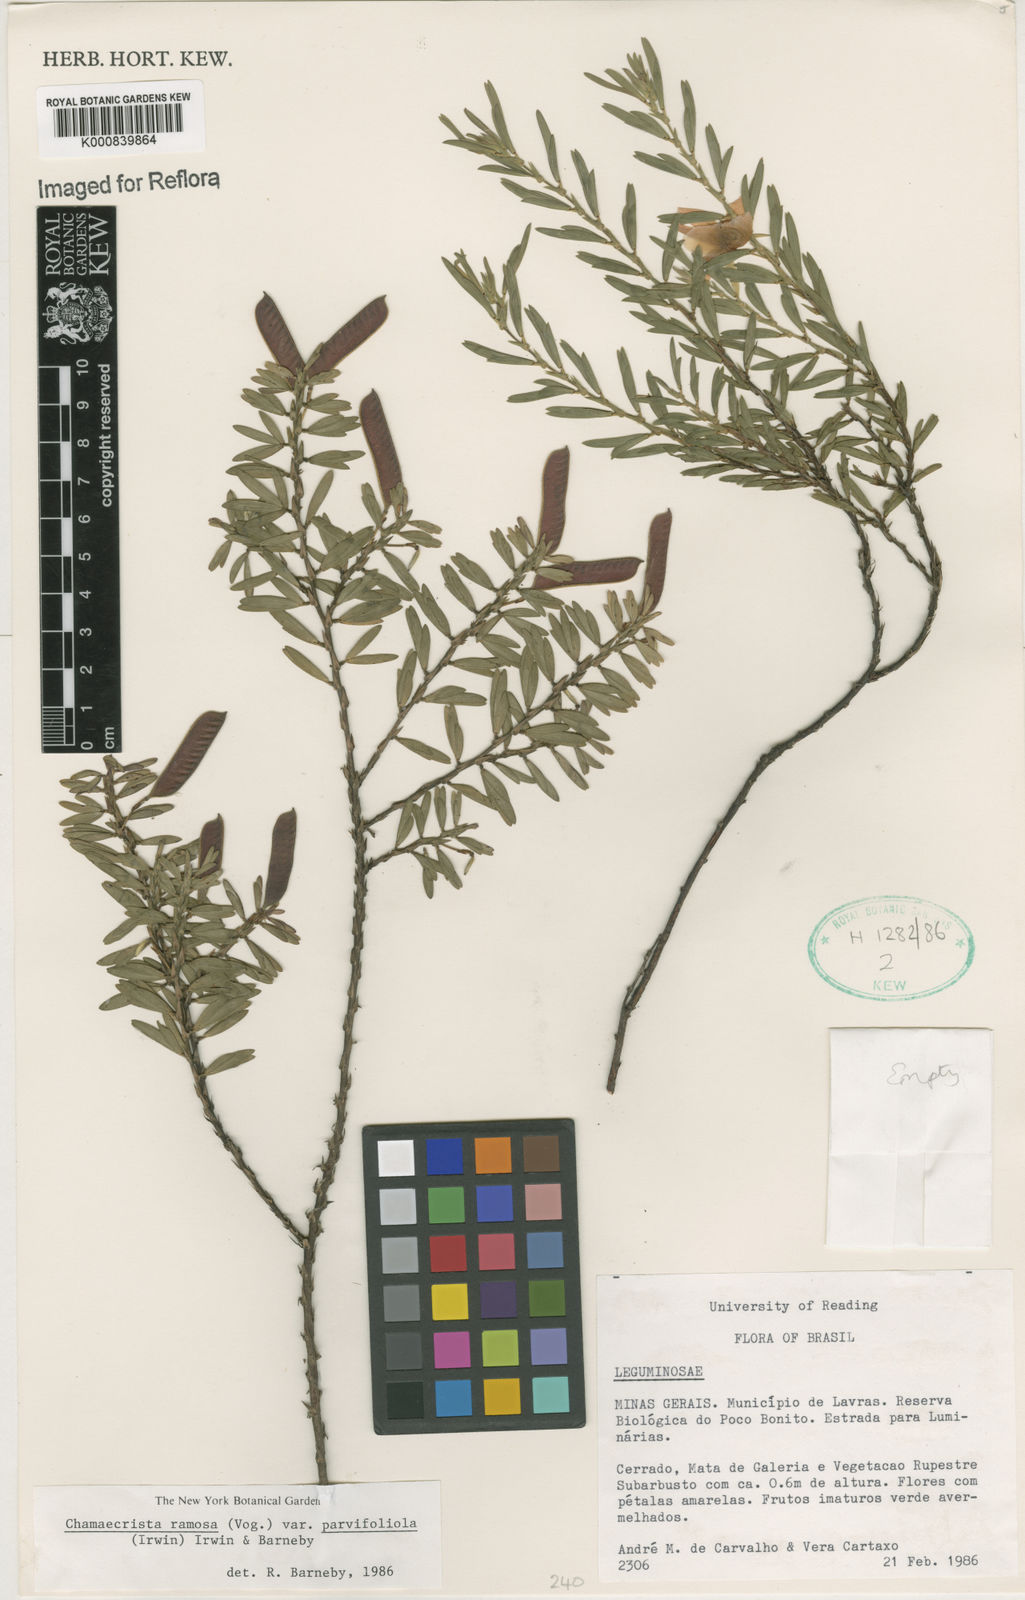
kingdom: Plantae
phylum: Tracheophyta
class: Magnoliopsida
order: Fabales
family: Fabaceae
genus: Chamaecrista
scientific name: Chamaecrista ramosa
